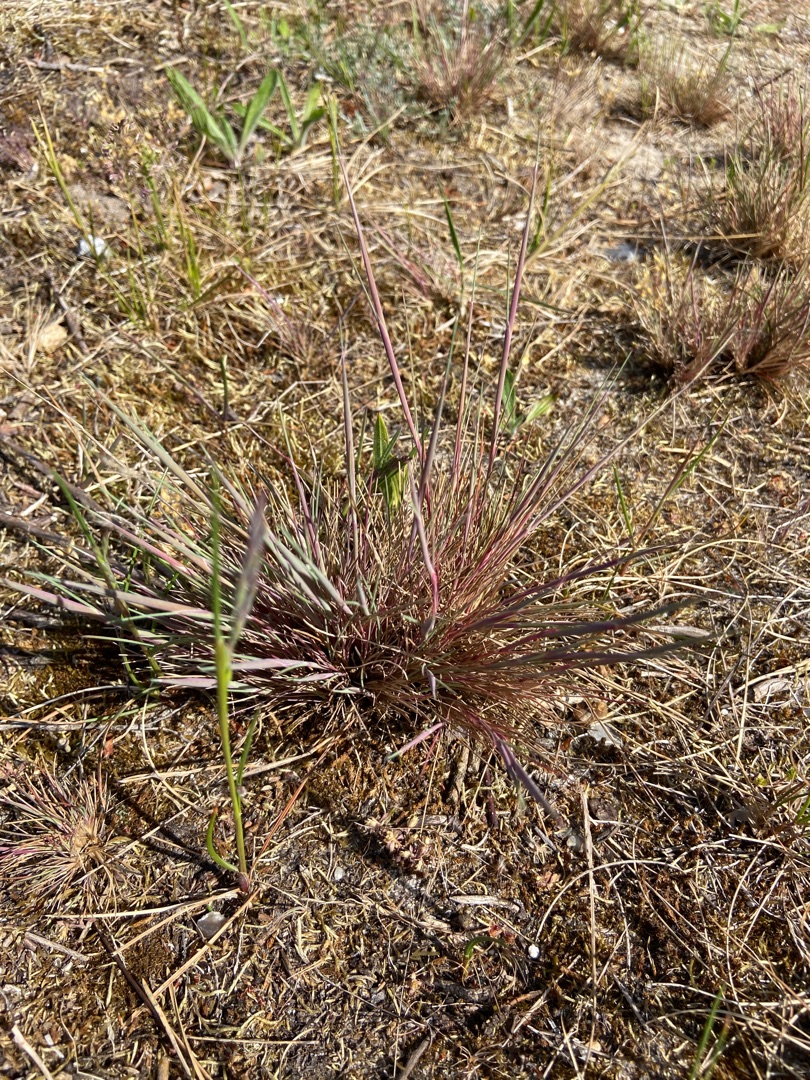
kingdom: Plantae
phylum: Tracheophyta
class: Liliopsida
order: Poales
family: Poaceae
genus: Corynephorus
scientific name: Corynephorus canescens
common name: Sandskæg
